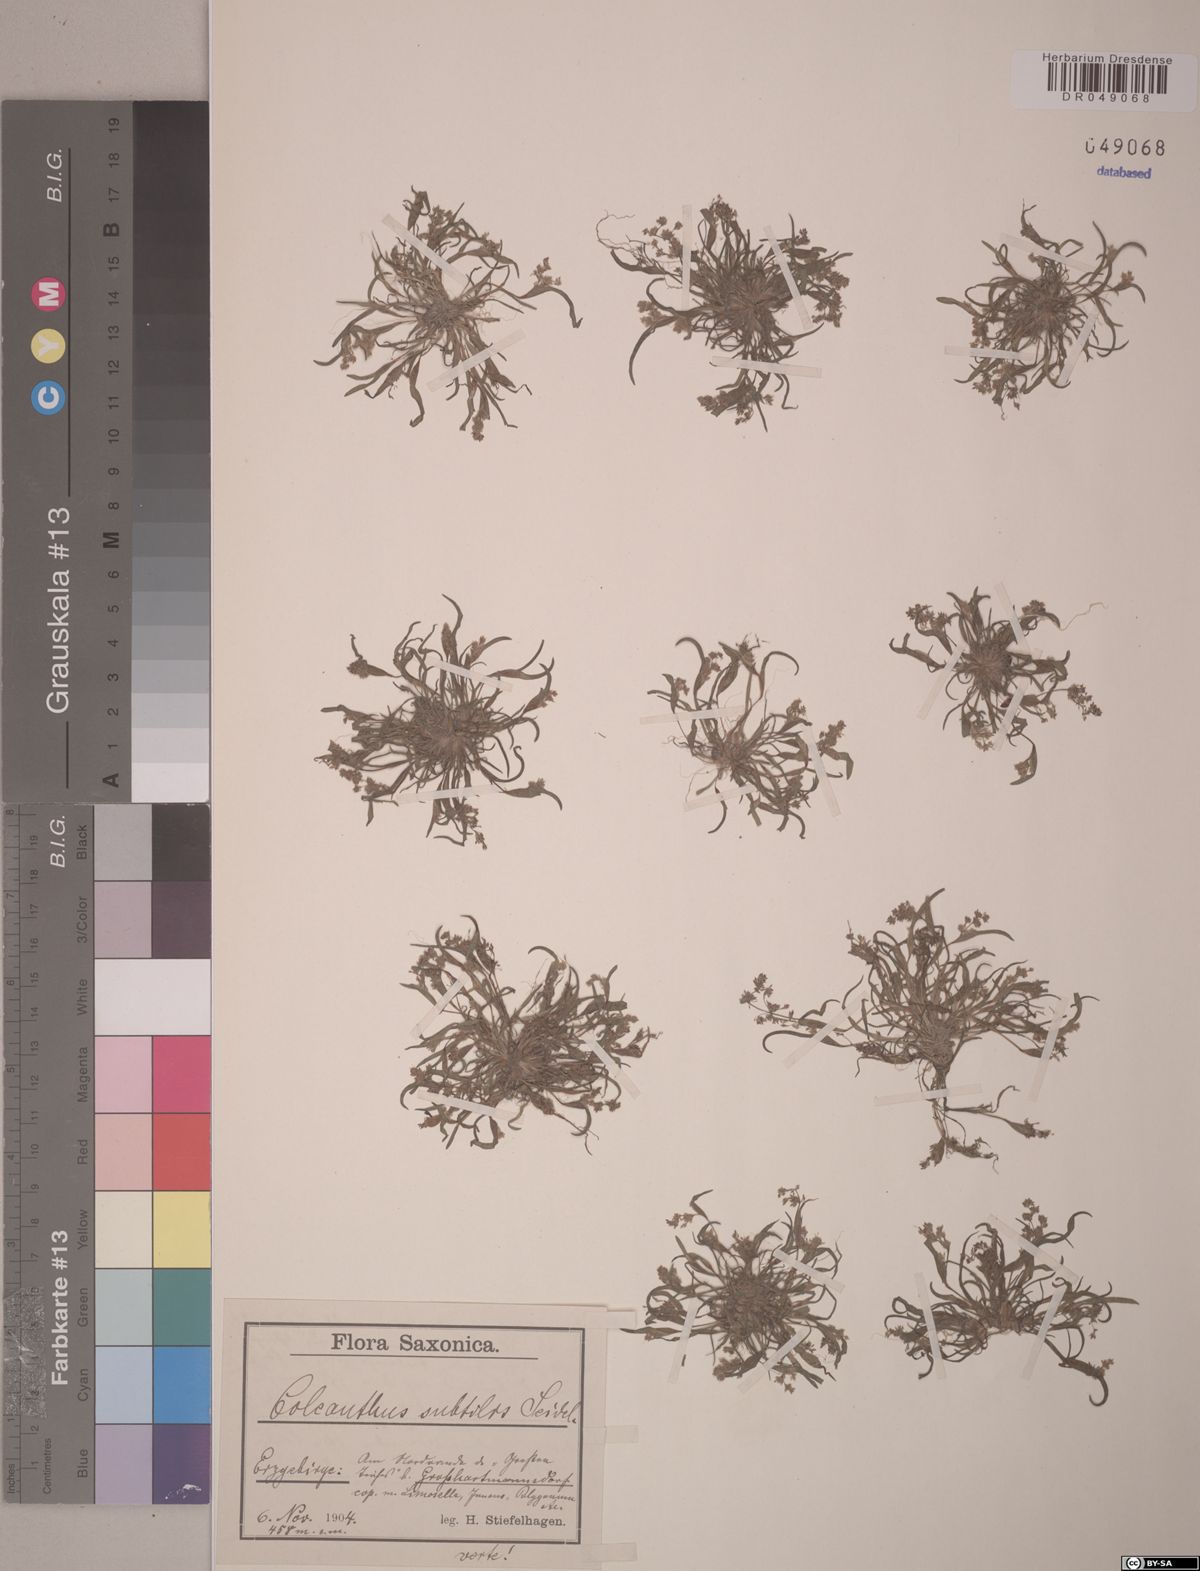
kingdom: Plantae
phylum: Tracheophyta
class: Liliopsida
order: Poales
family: Poaceae
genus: Coleanthus
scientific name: Coleanthus subtilis
